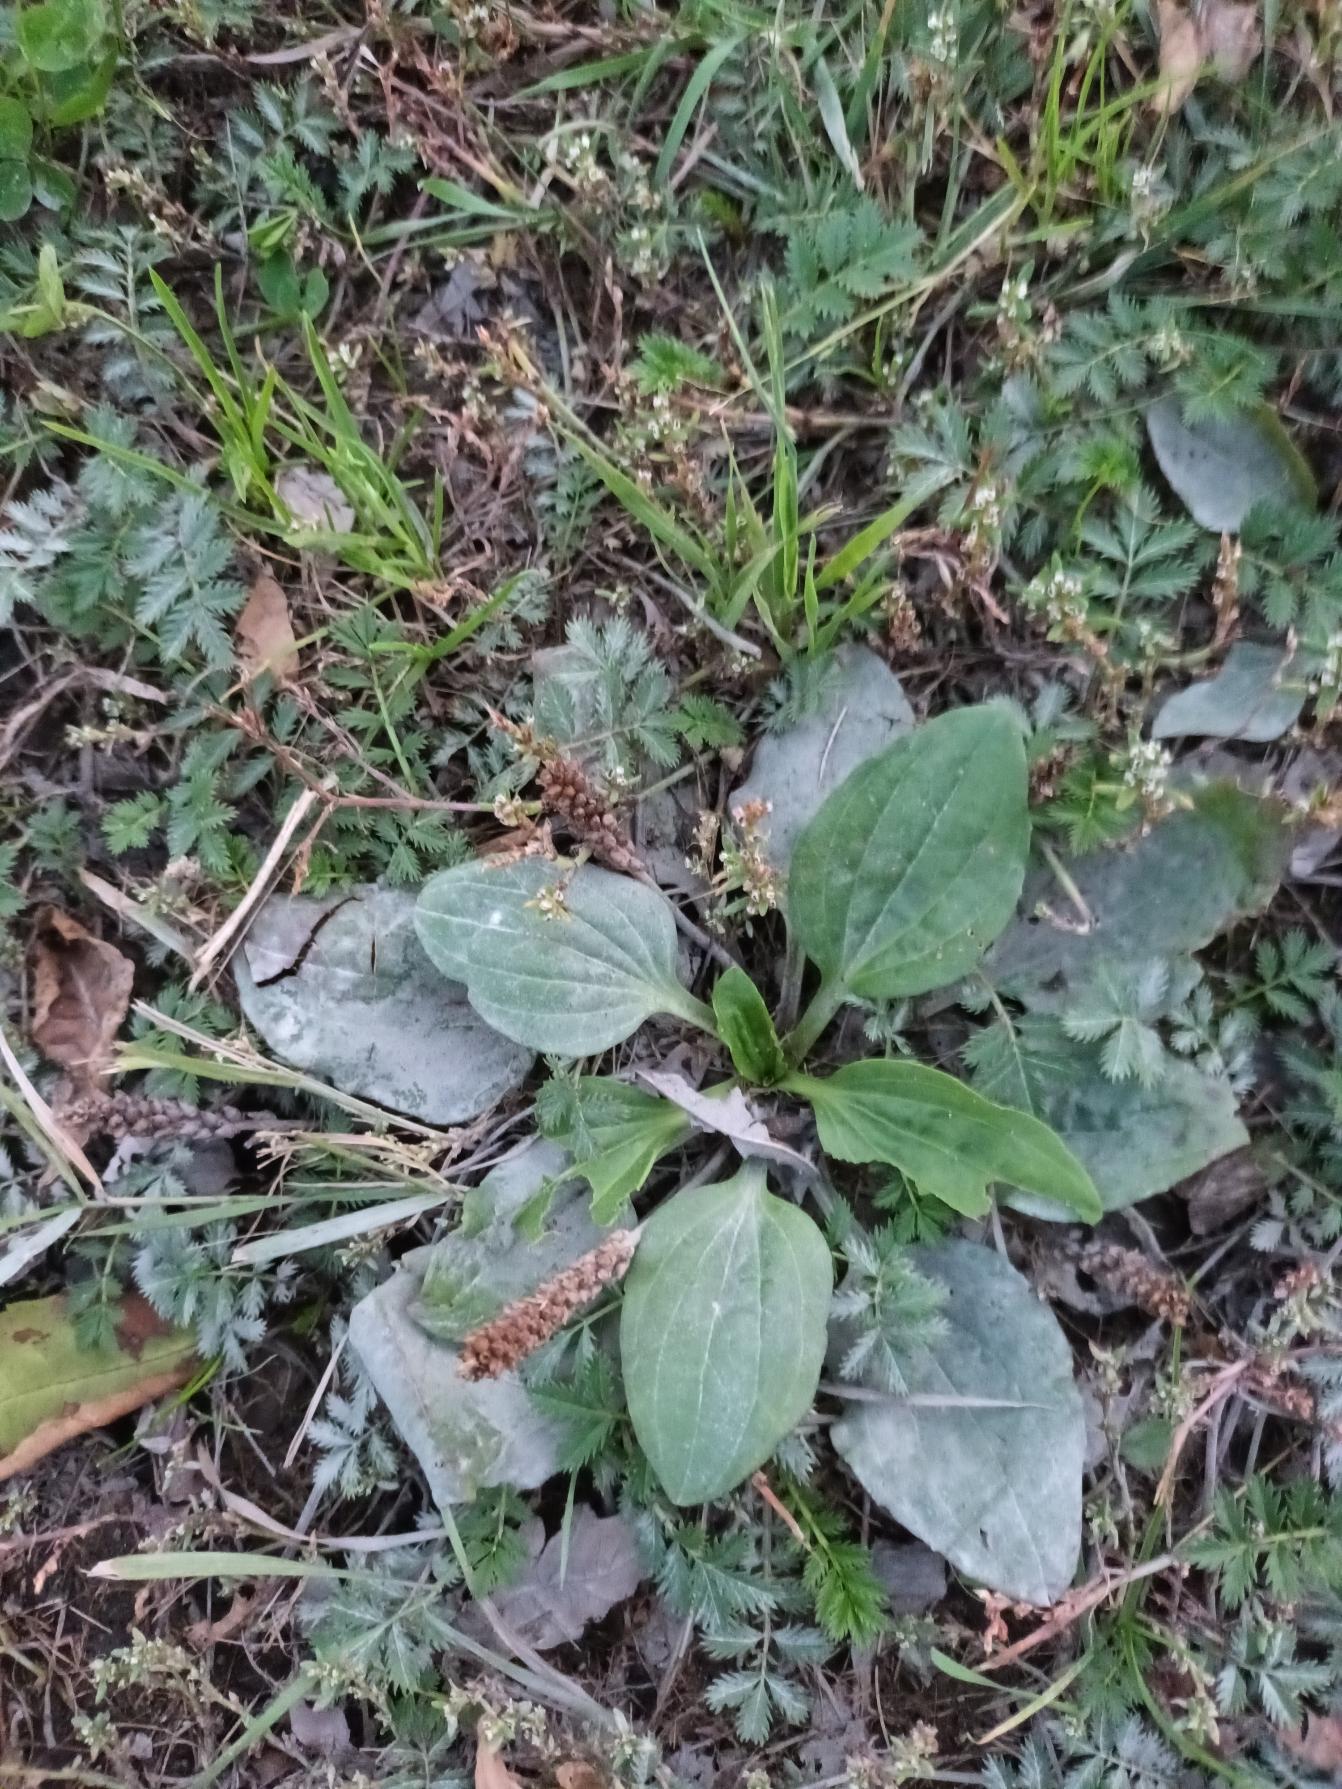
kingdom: Plantae
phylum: Tracheophyta
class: Magnoliopsida
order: Lamiales
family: Plantaginaceae
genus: Plantago
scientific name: Plantago major
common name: Glat vejbred
